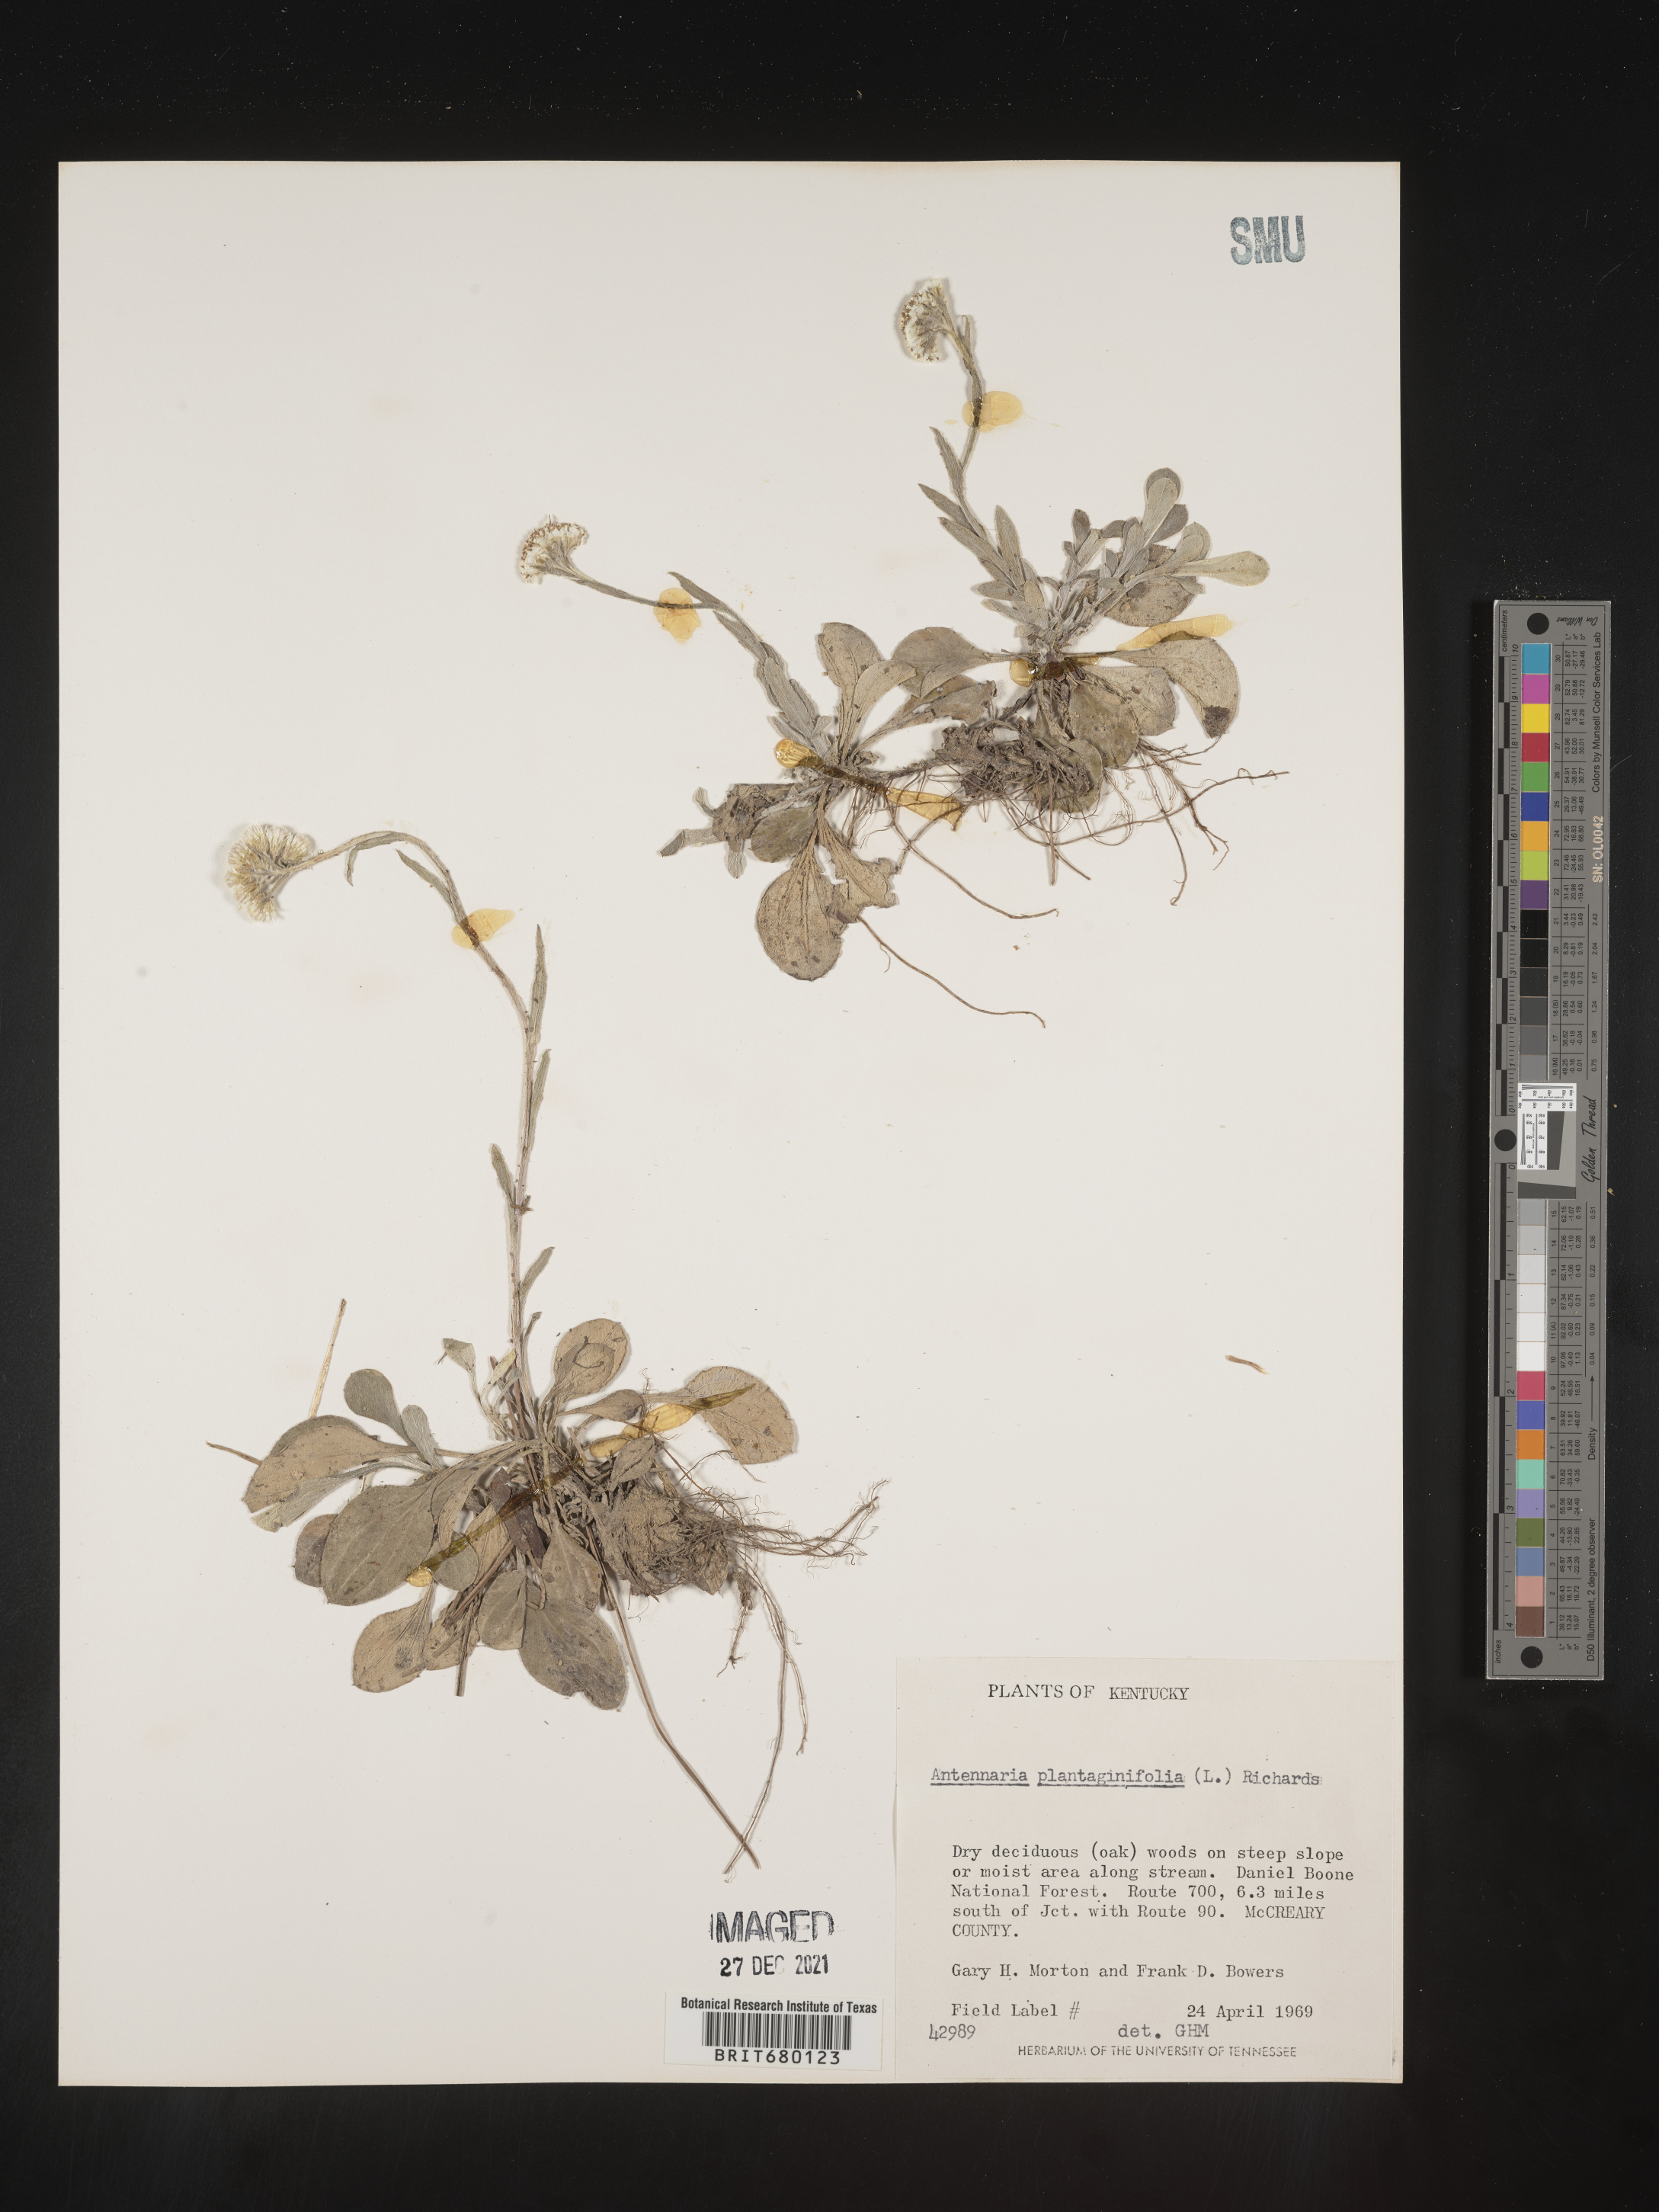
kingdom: Plantae
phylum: Tracheophyta
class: Magnoliopsida
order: Asterales
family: Asteraceae
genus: Antennaria
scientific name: Antennaria plantaginifolia
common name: Plantain-leaved pussytoes
